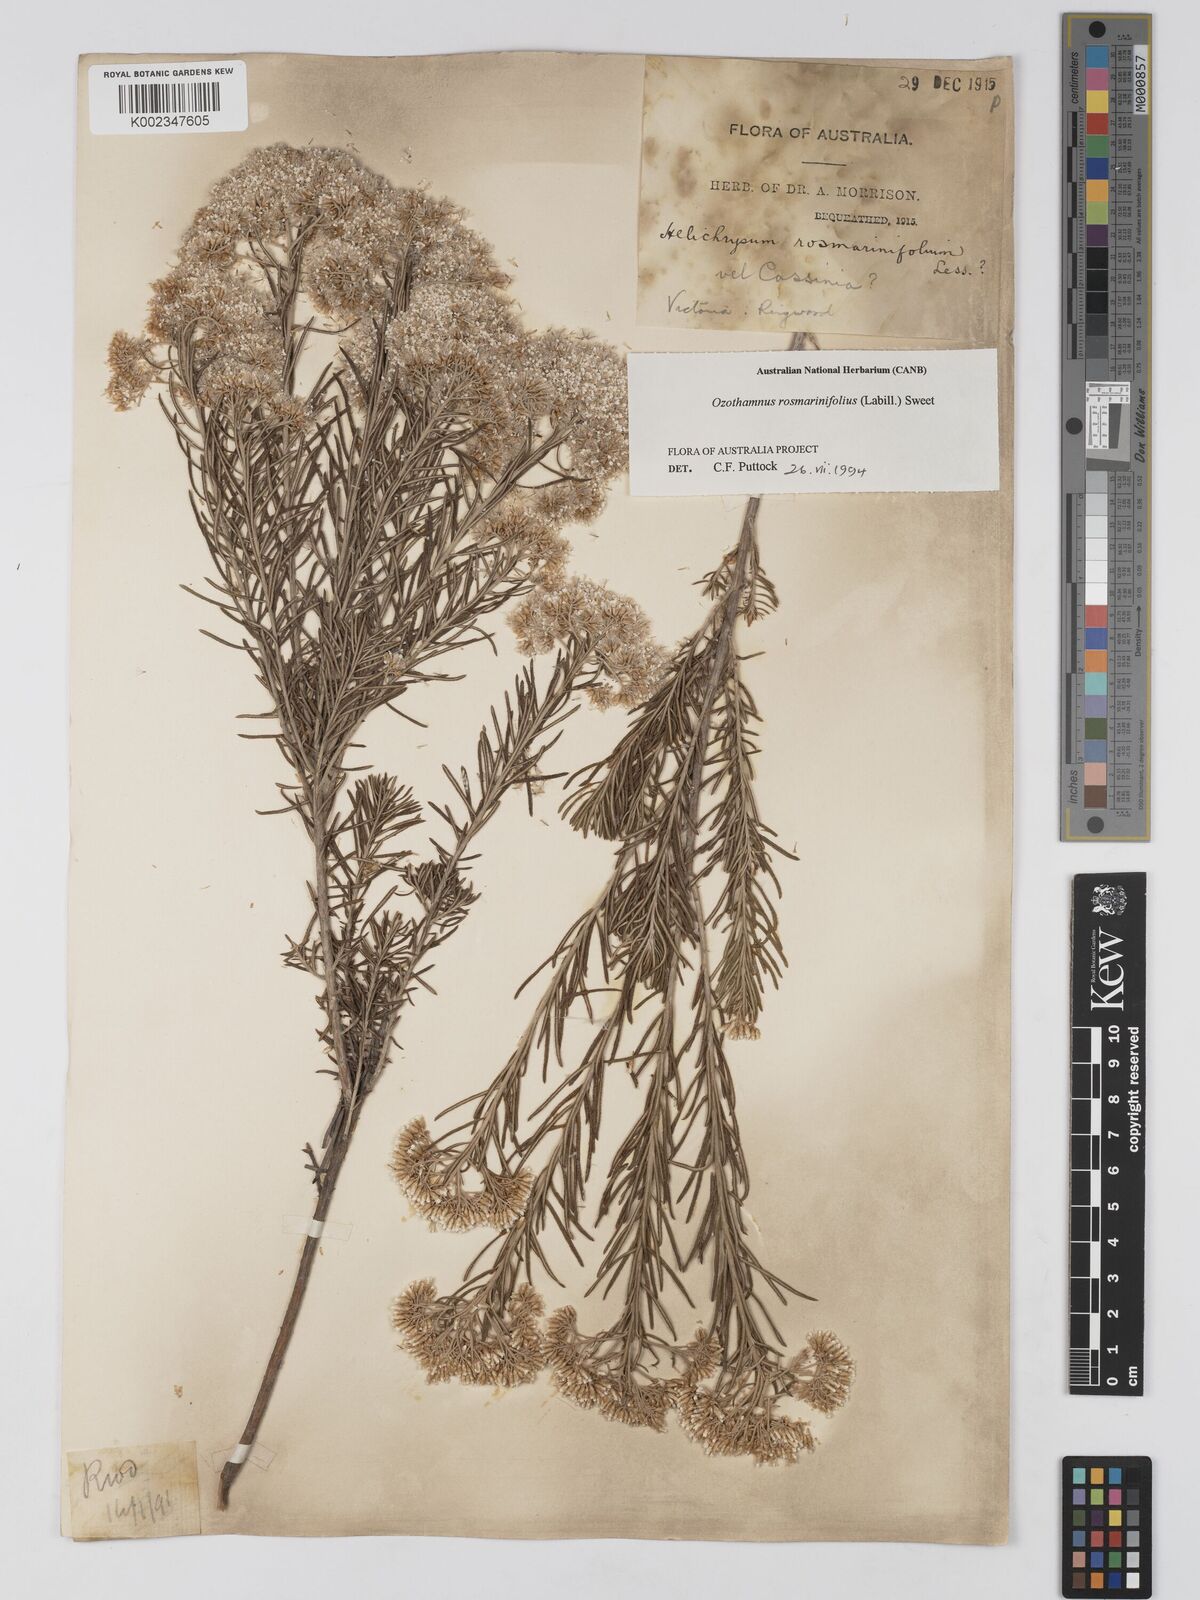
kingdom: Plantae
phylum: Tracheophyta
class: Magnoliopsida
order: Asterales
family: Asteraceae
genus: Ozothamnus
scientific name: Ozothamnus rosmarinifolius
